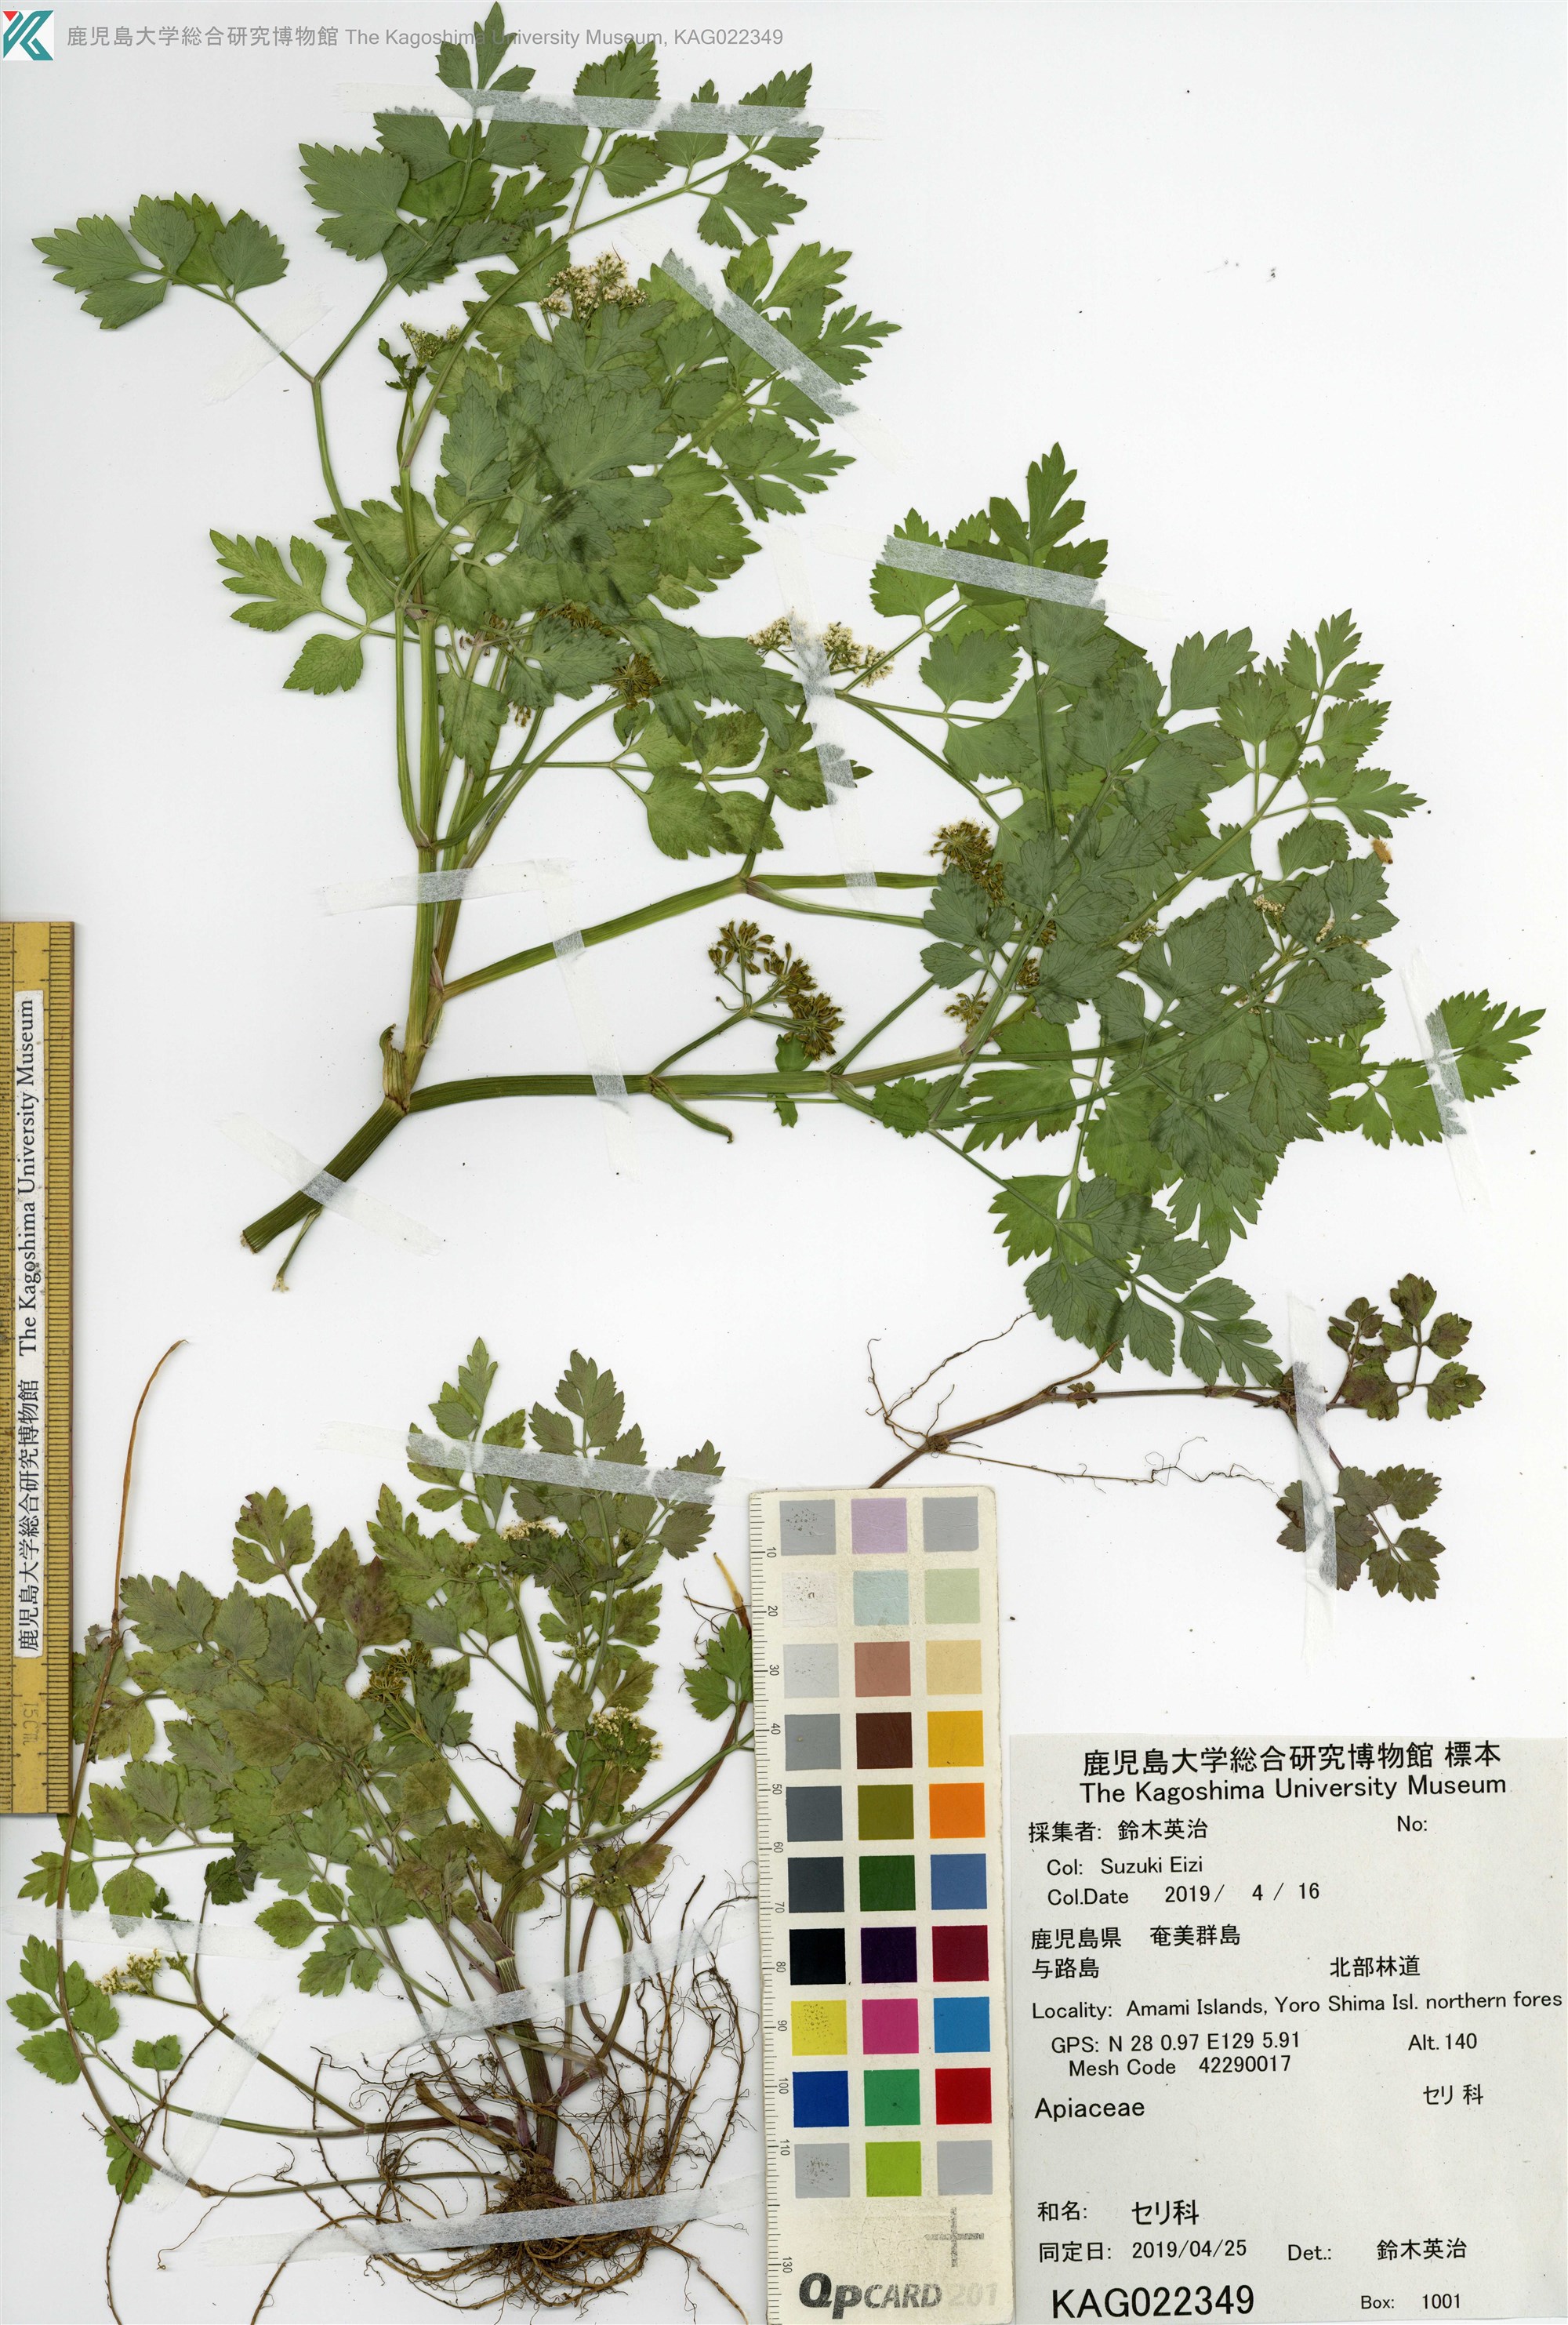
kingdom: Plantae
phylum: Tracheophyta
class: Magnoliopsida
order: Apiales
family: Apiaceae
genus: Oenanthe
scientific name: Oenanthe javanica
